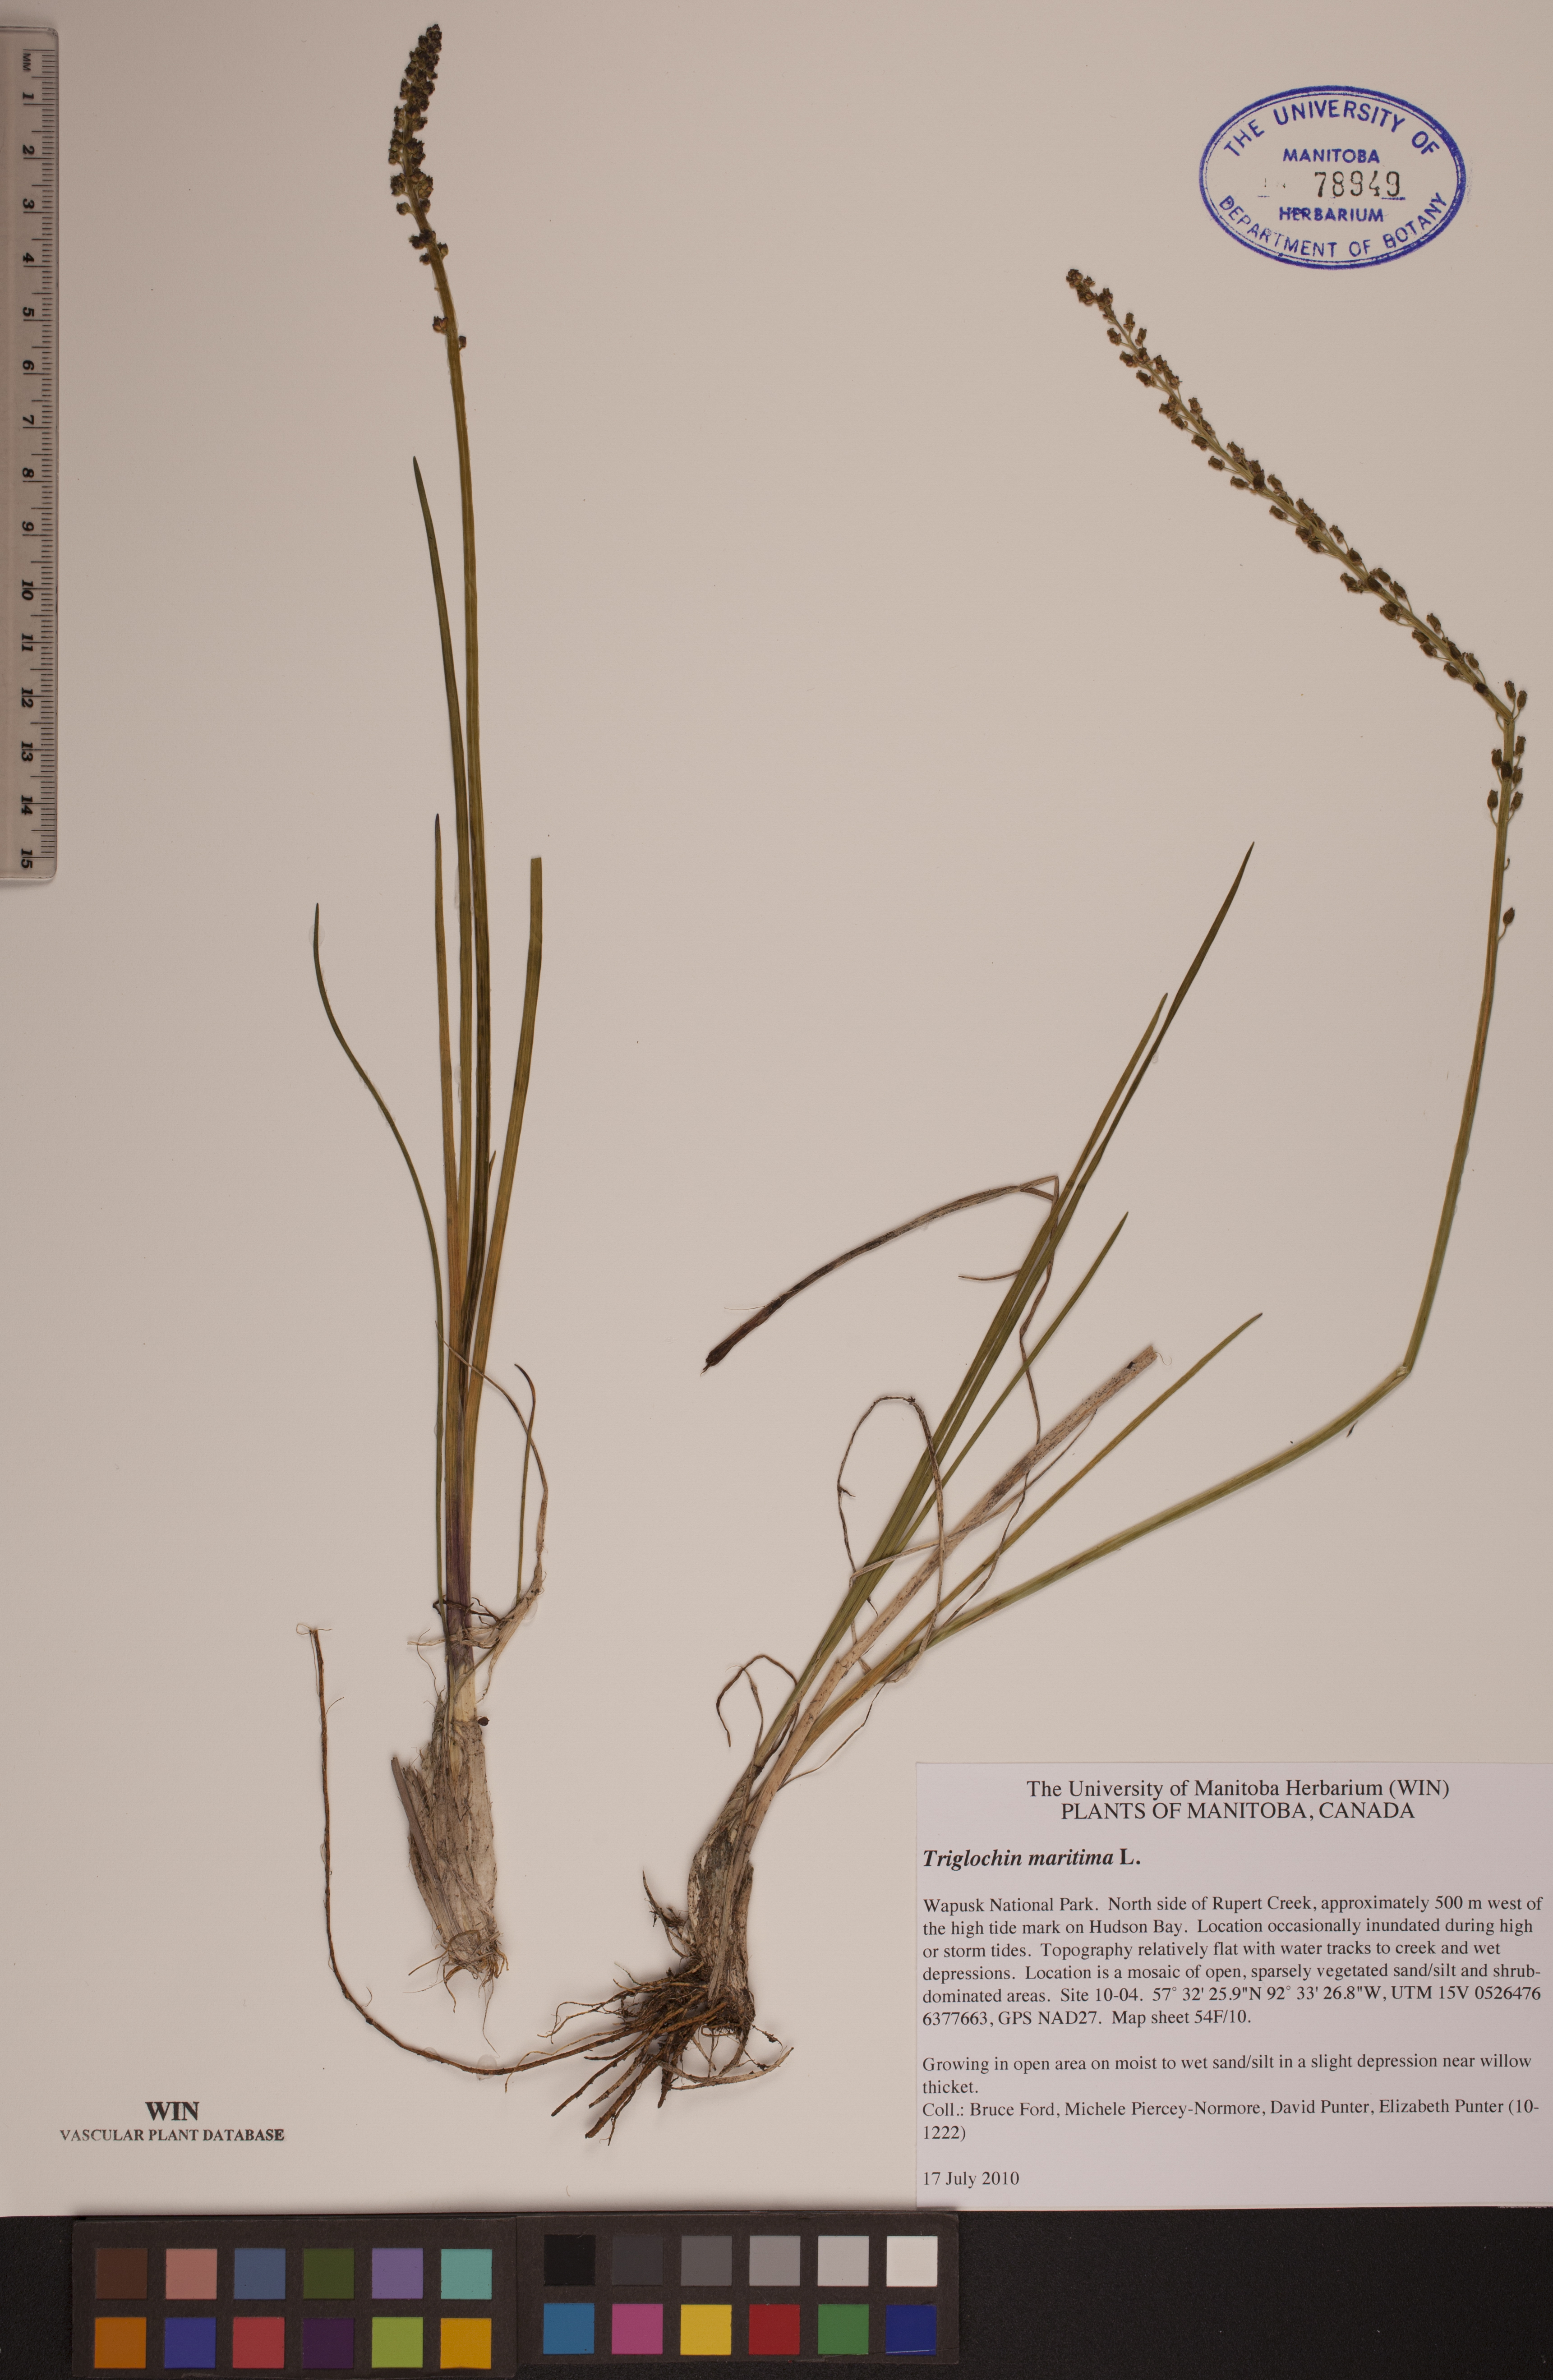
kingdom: Plantae
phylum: Tracheophyta
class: Liliopsida
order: Alismatales
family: Juncaginaceae
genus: Triglochin
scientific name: Triglochin maritima
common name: Sea arrowgrass
